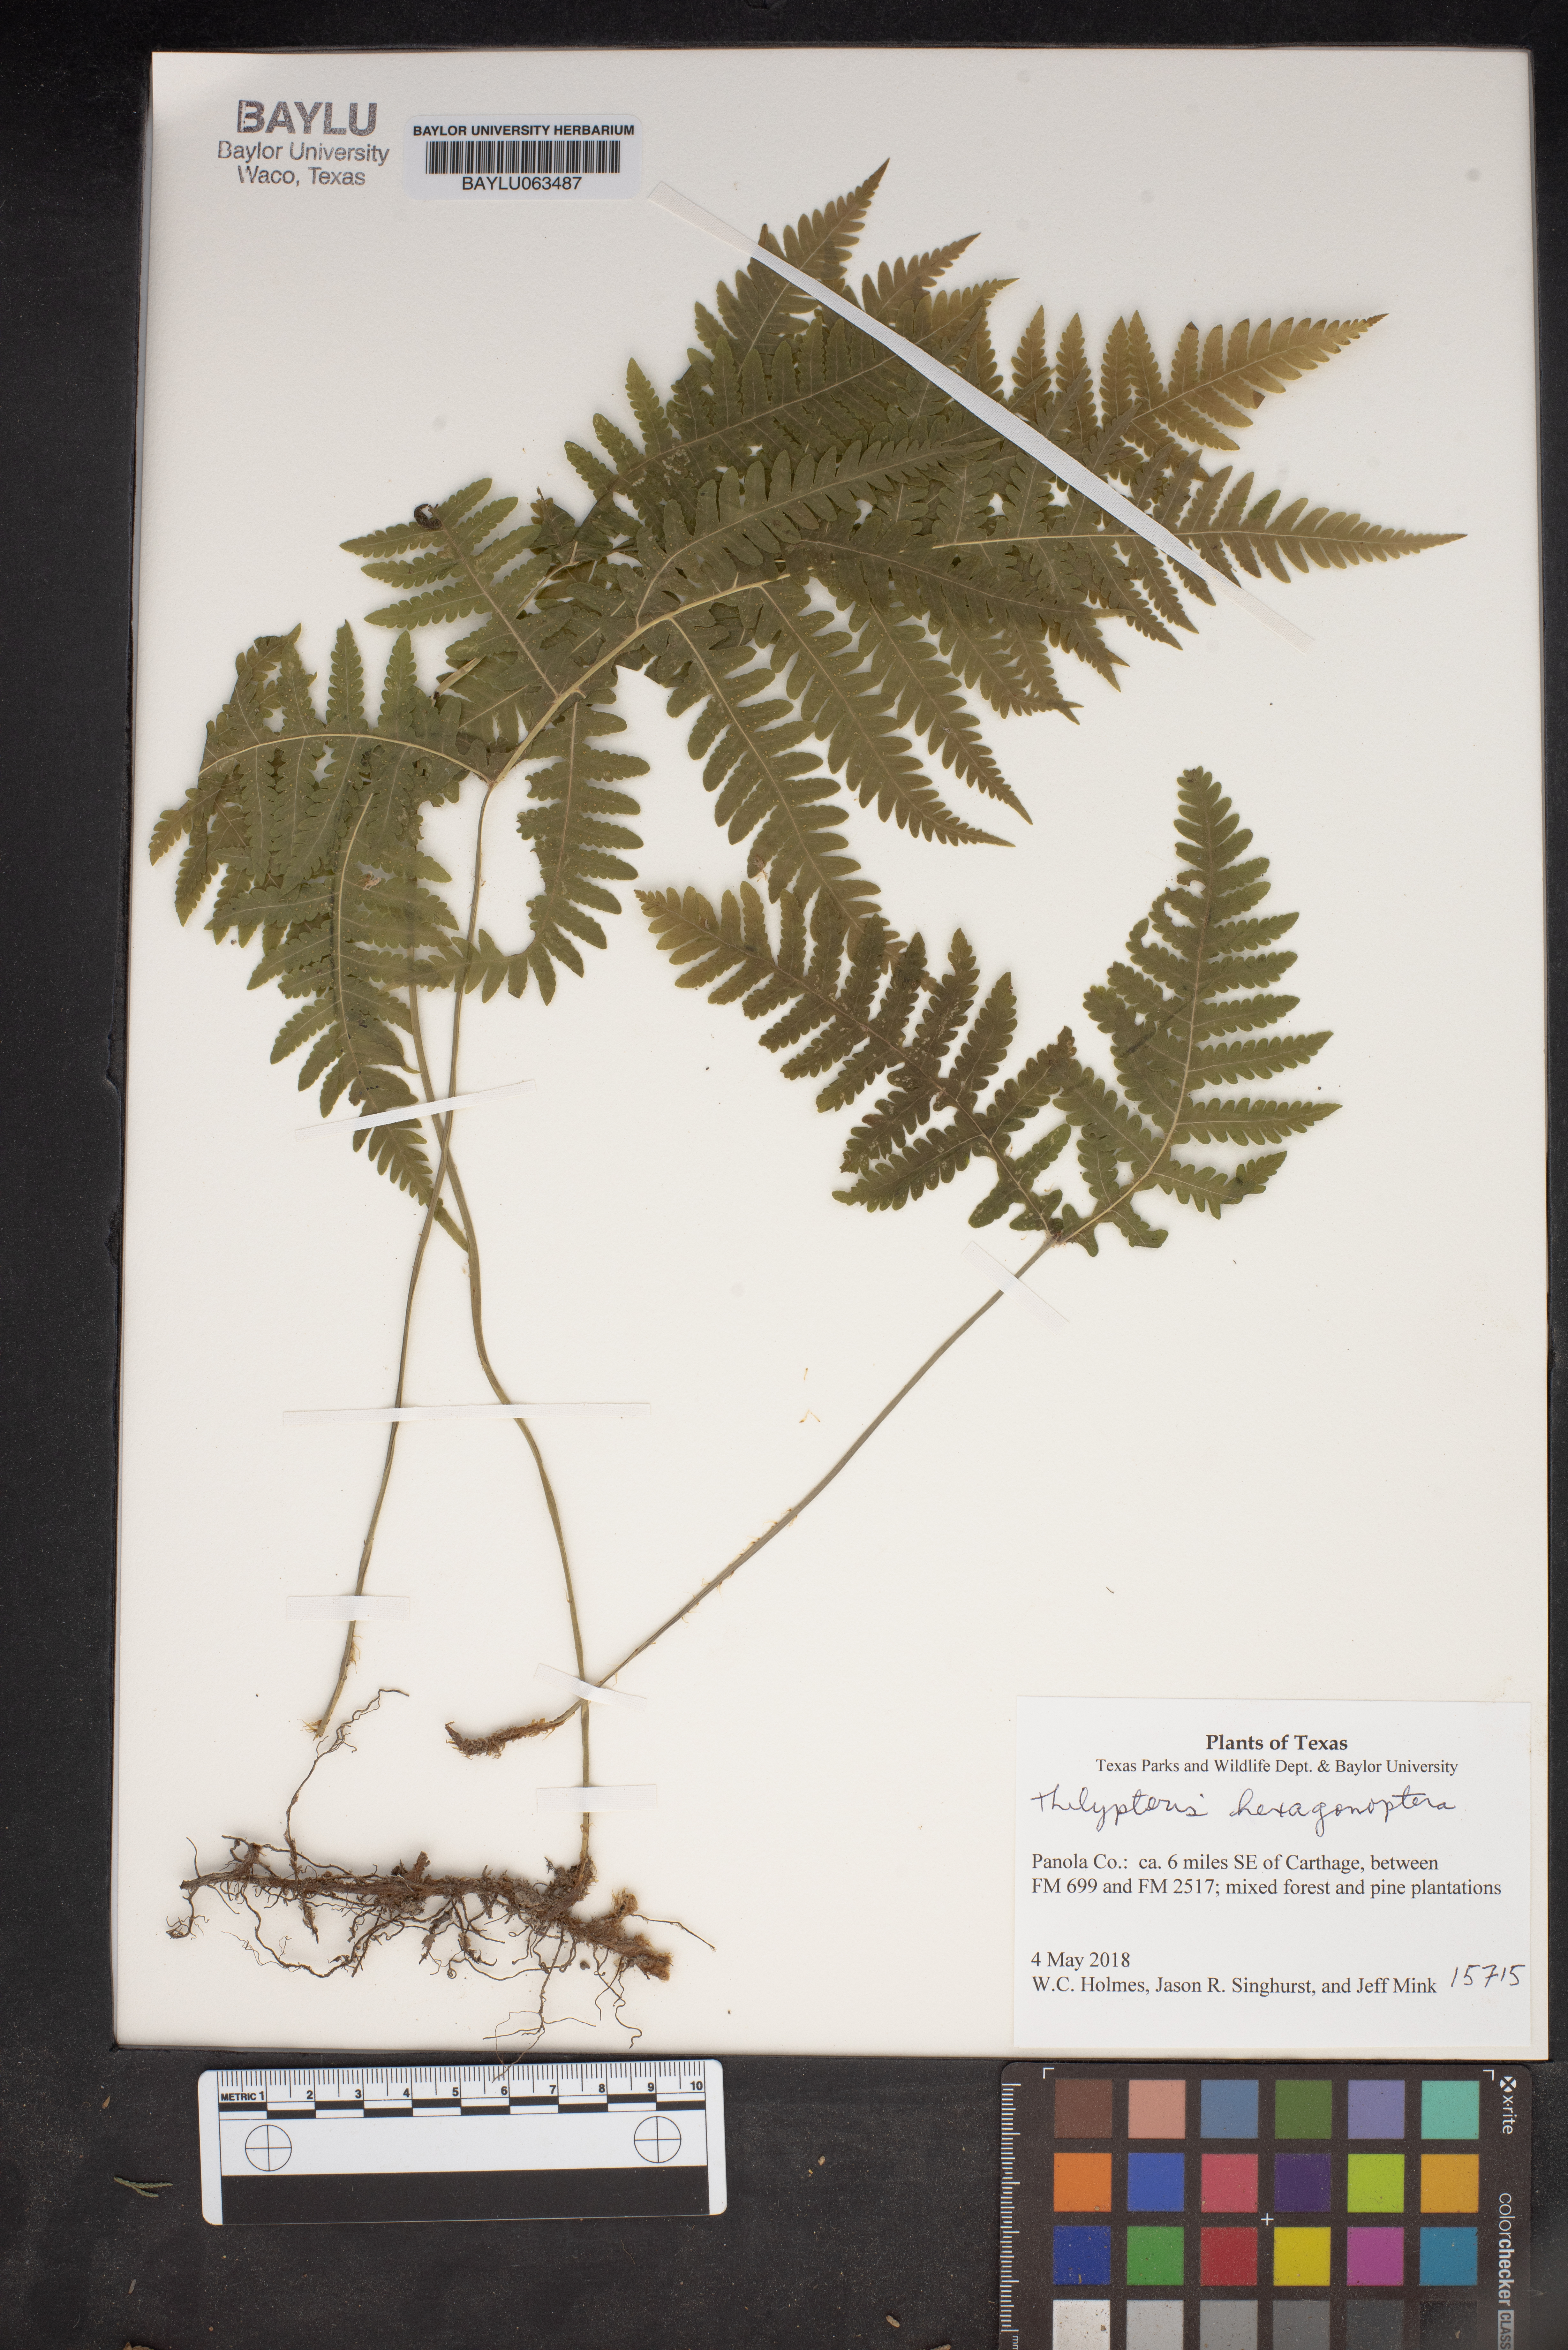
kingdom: Plantae
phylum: Tracheophyta
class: Polypodiopsida
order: Polypodiales
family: Thelypteridaceae
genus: Phegopteris
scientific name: Phegopteris hexagonoptera
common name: Broad beech fern
